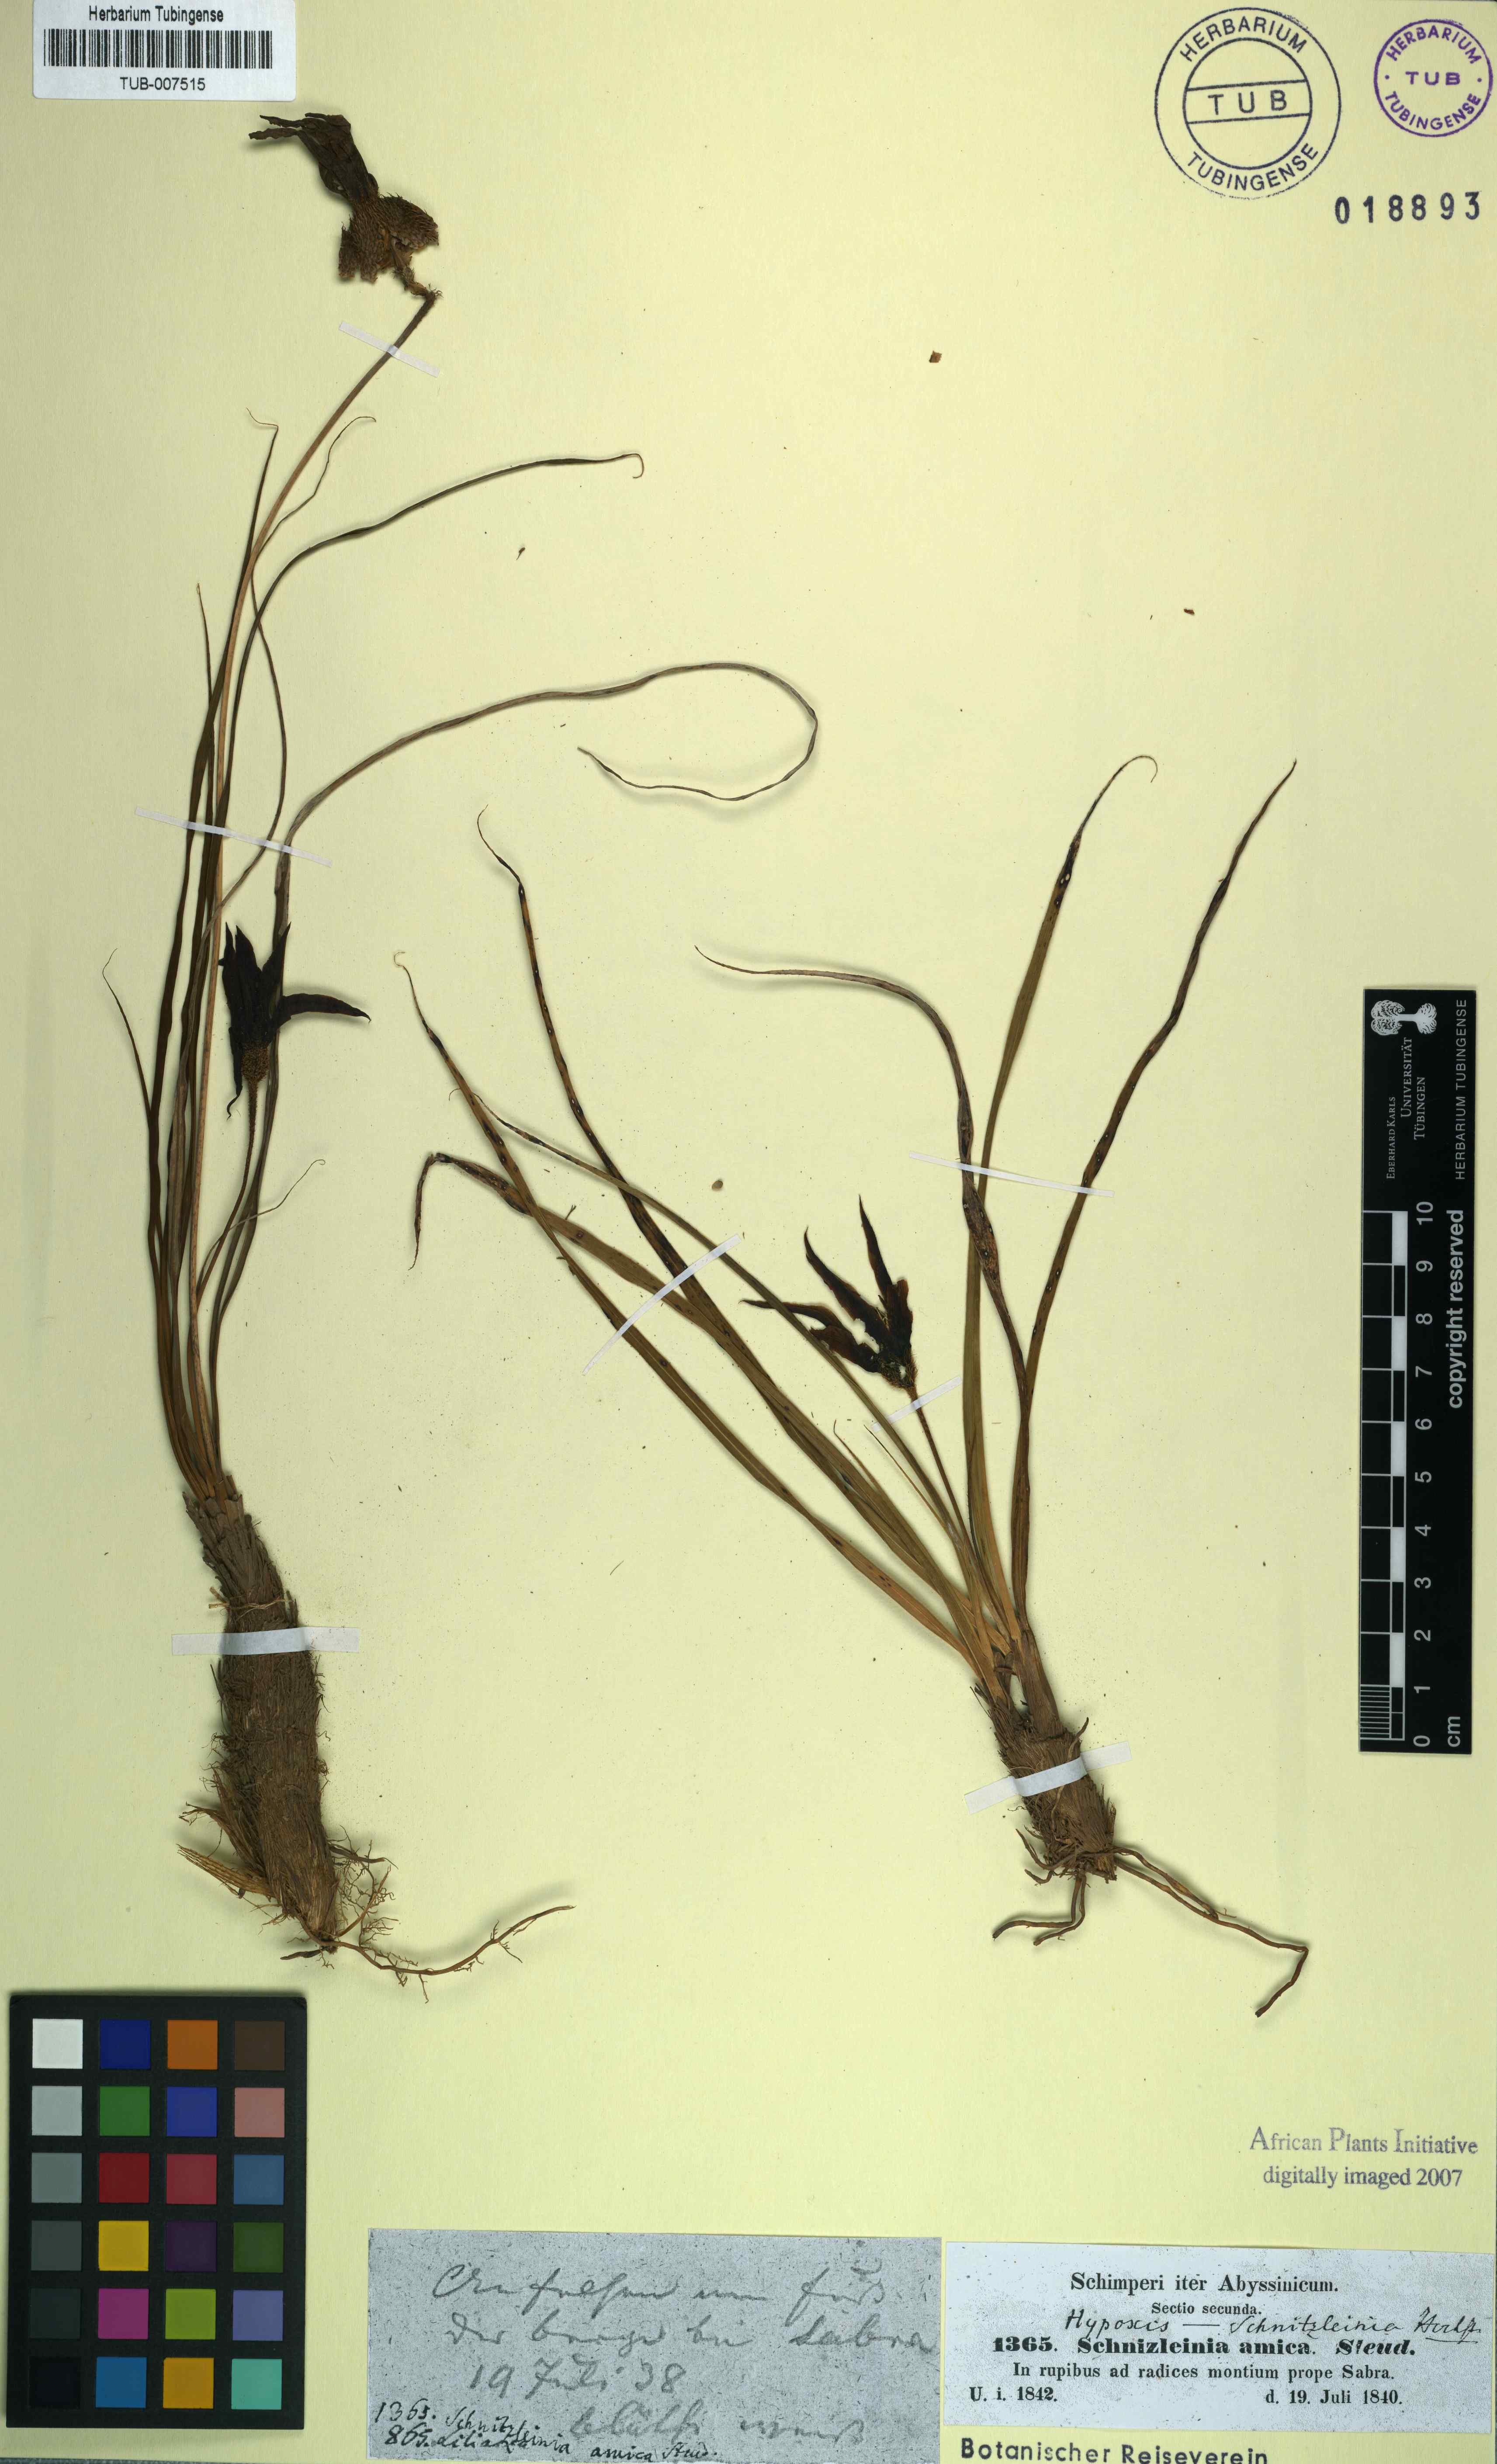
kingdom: Plantae
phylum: Tracheophyta
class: Liliopsida
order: Pandanales
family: Velloziaceae
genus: Xerophyta
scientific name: Xerophyta schnizleinia
